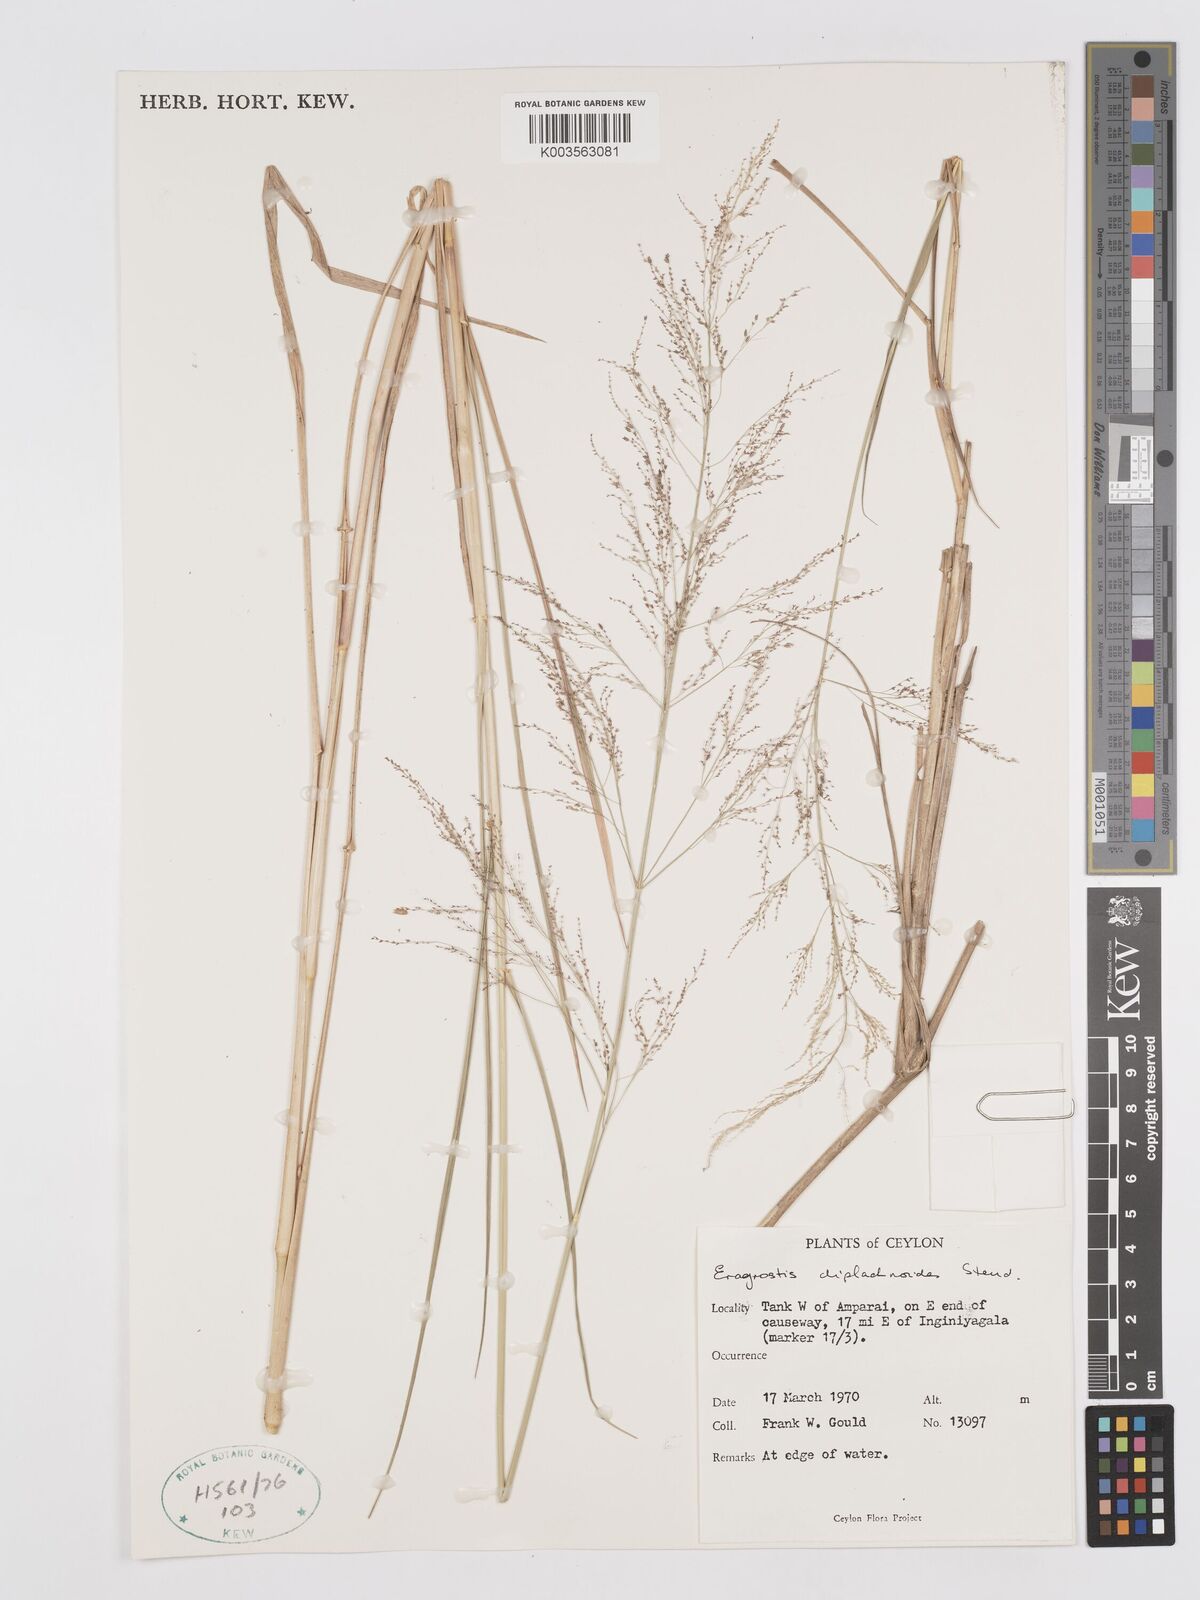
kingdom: Plantae
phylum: Tracheophyta
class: Liliopsida
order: Poales
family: Poaceae
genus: Eragrostis
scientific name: Eragrostis japonica
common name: Pond lovegrass
